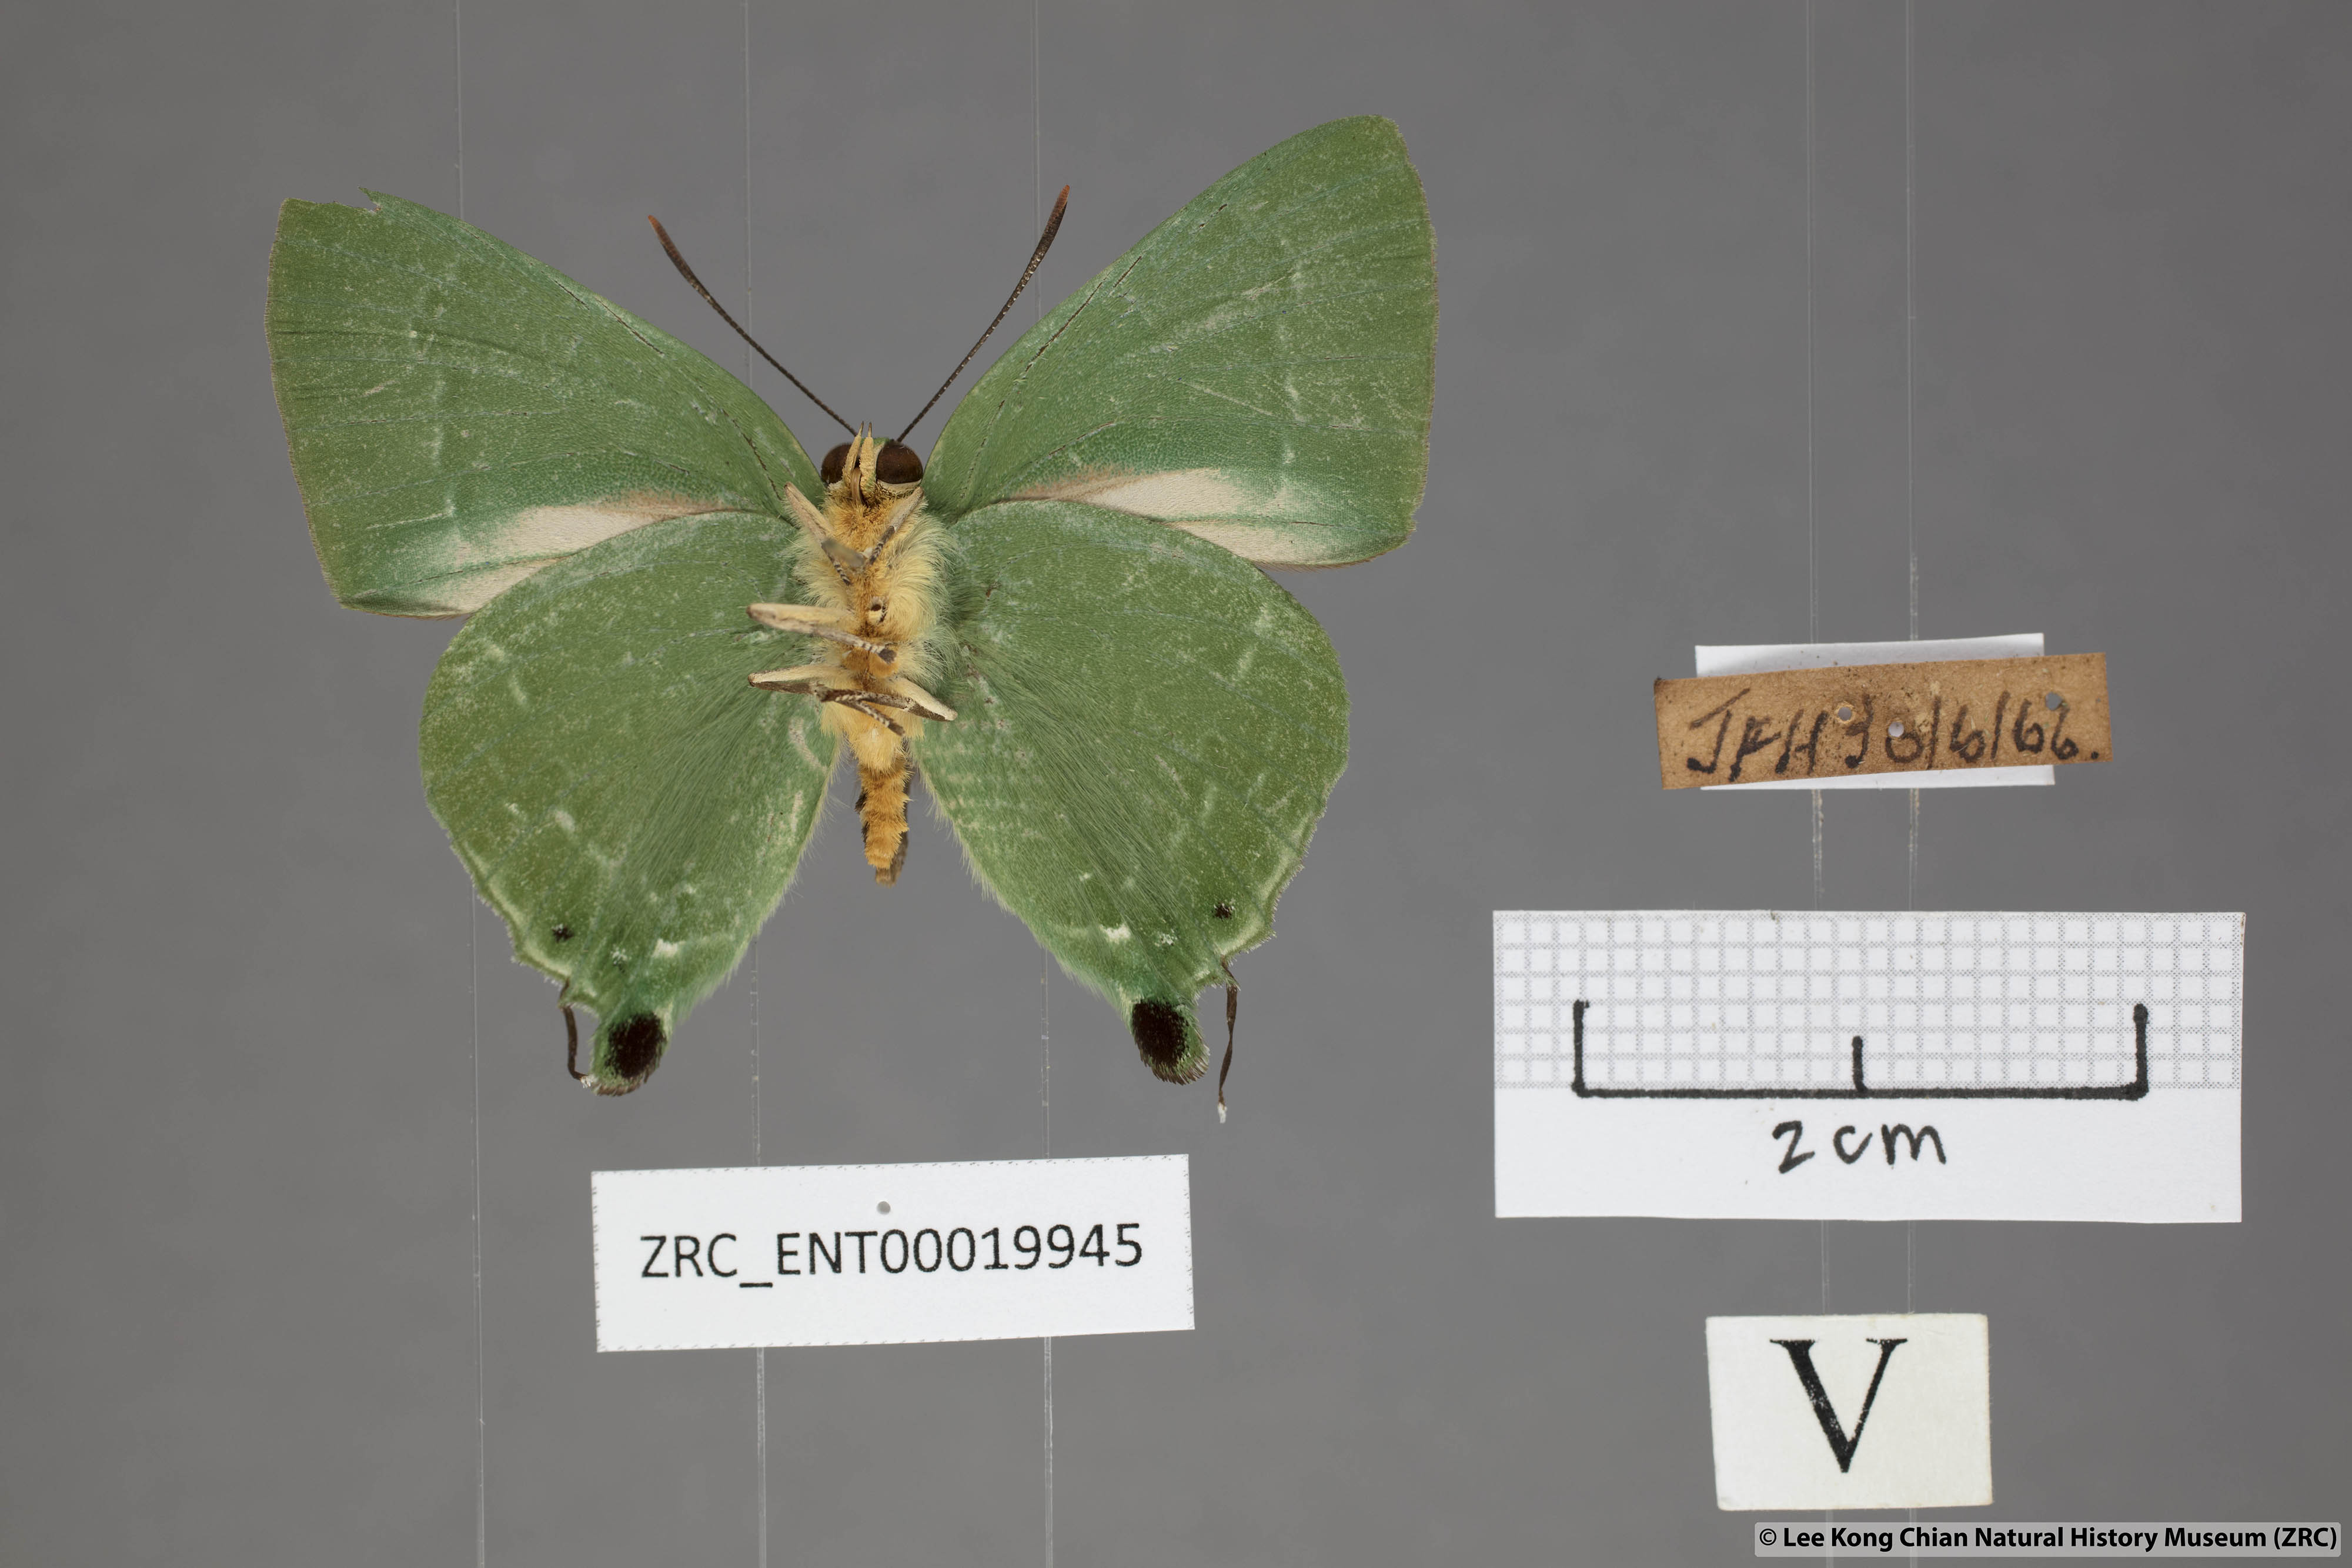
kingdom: Animalia
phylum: Arthropoda
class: Insecta
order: Lepidoptera
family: Lycaenidae
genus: Artipe
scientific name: Artipe eryx
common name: Green flash
